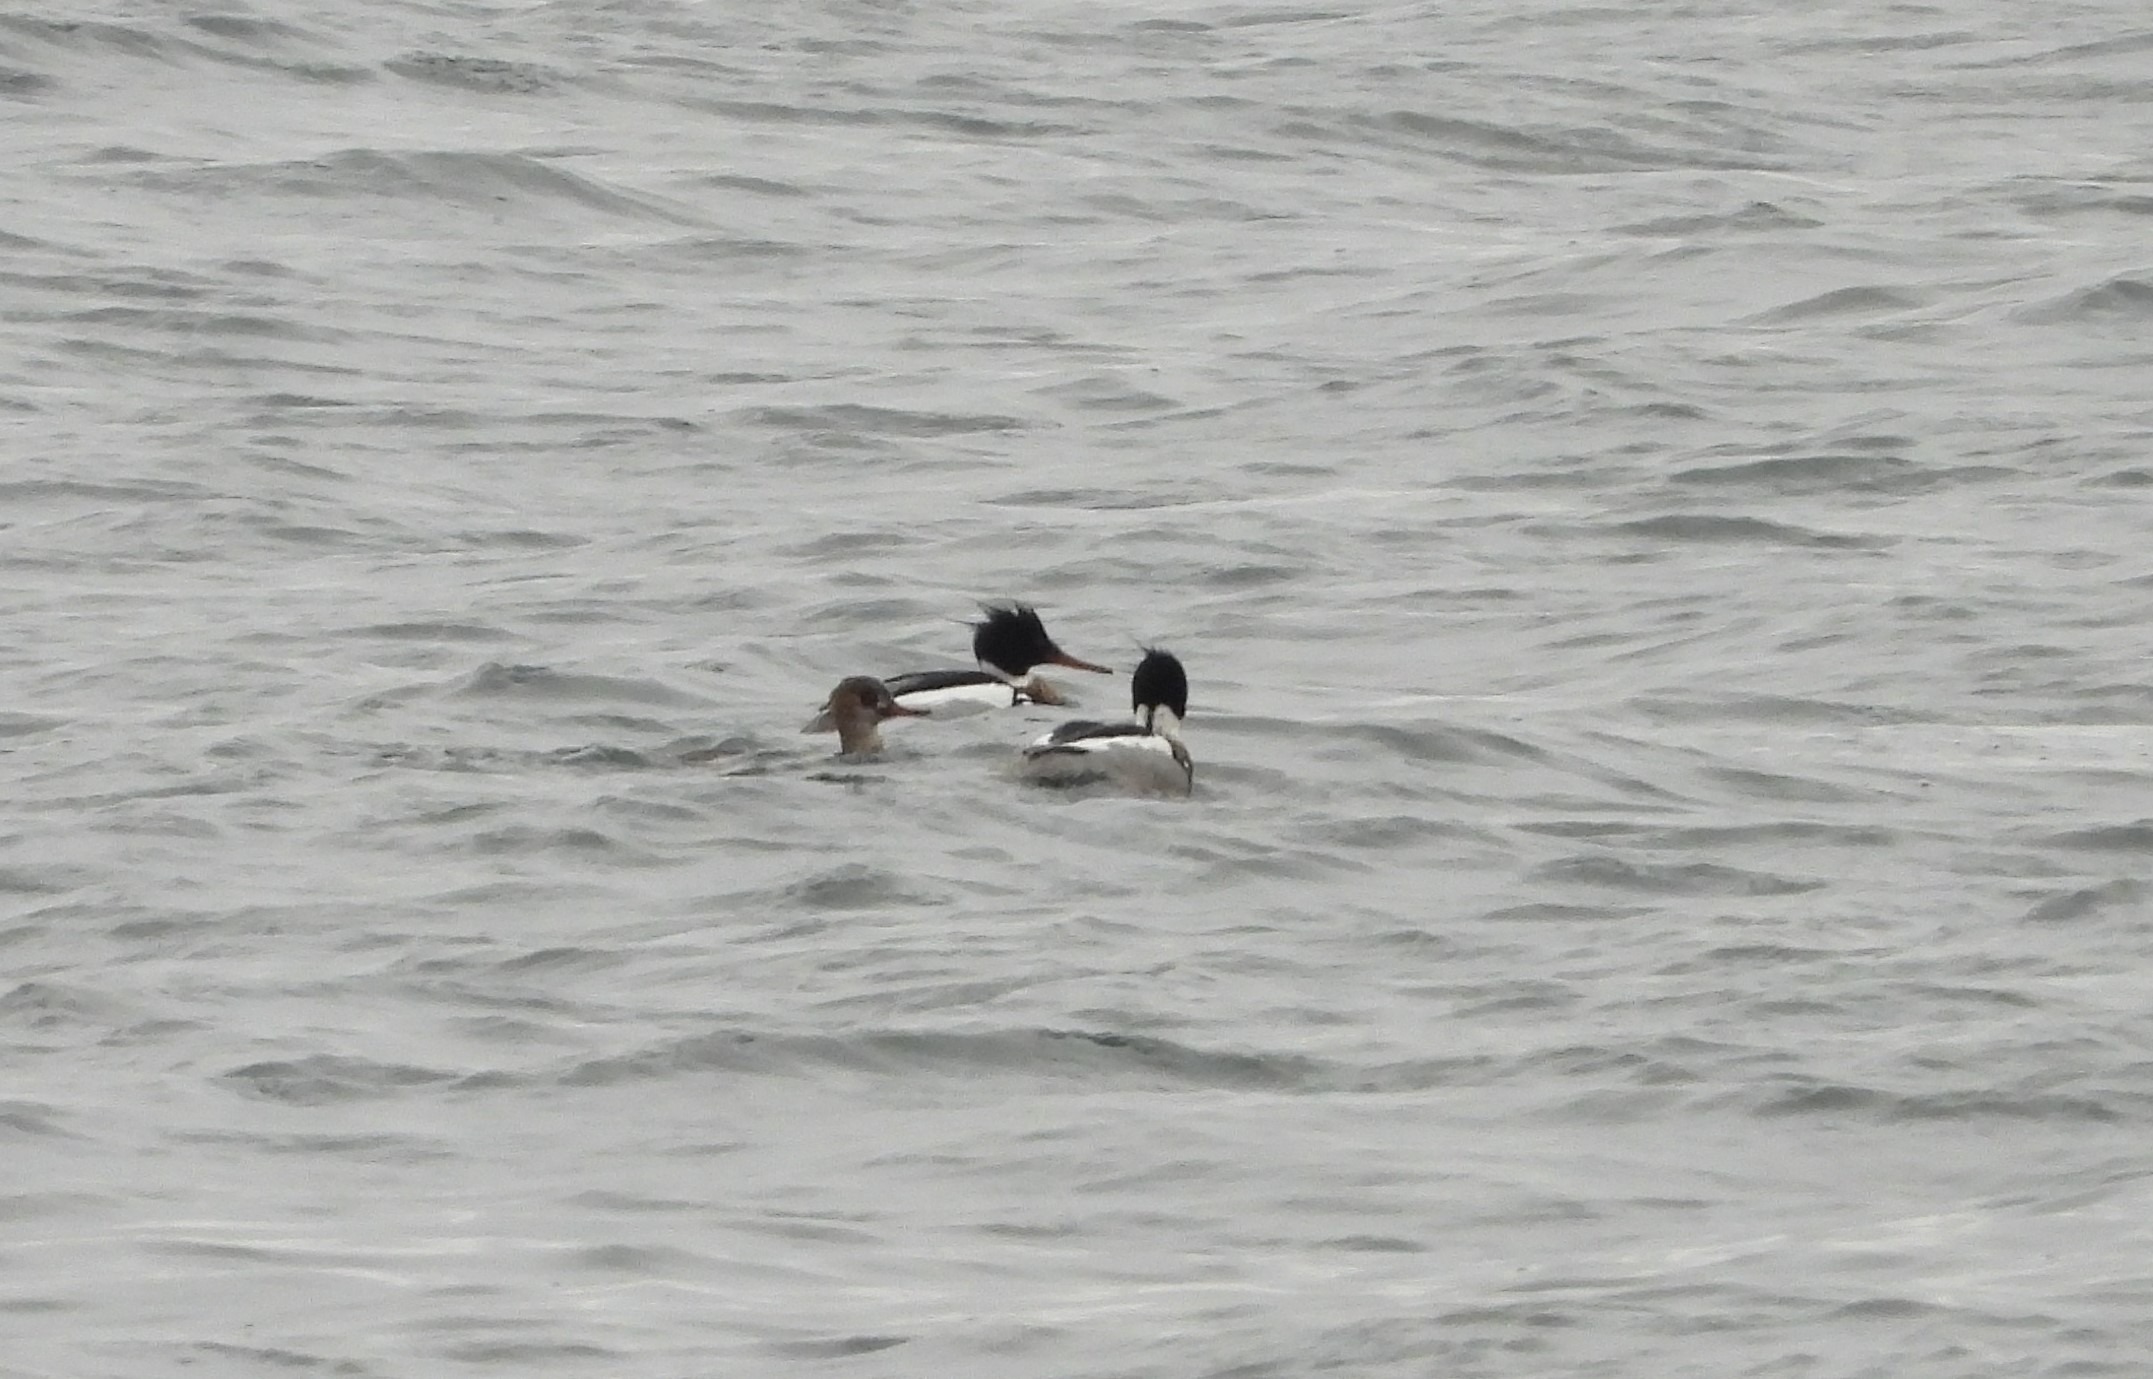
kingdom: Animalia
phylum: Chordata
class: Aves
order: Anseriformes
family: Anatidae
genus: Mergus
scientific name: Mergus serrator
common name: Toppet skallesluger
